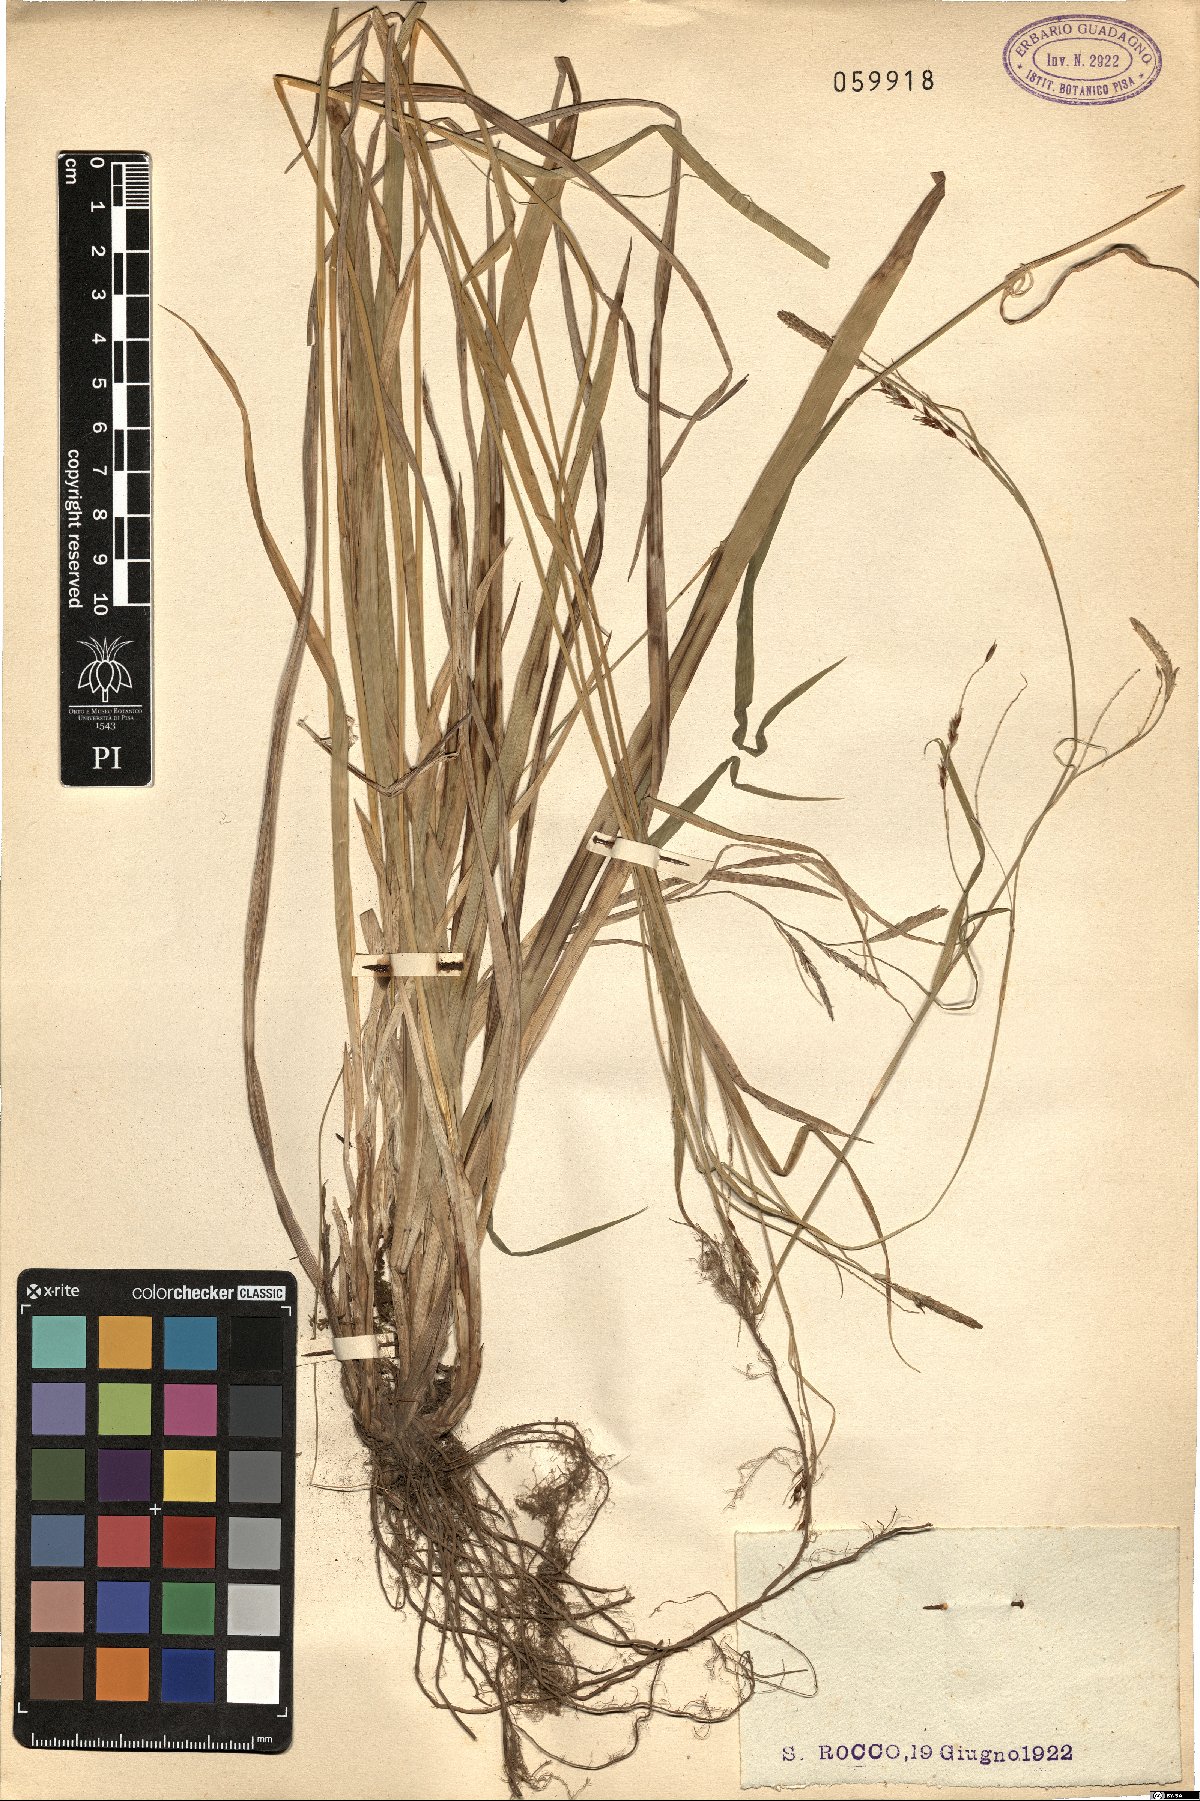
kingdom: Plantae
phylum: Tracheophyta
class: Liliopsida
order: Poales
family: Cyperaceae
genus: Carex
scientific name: Carex
